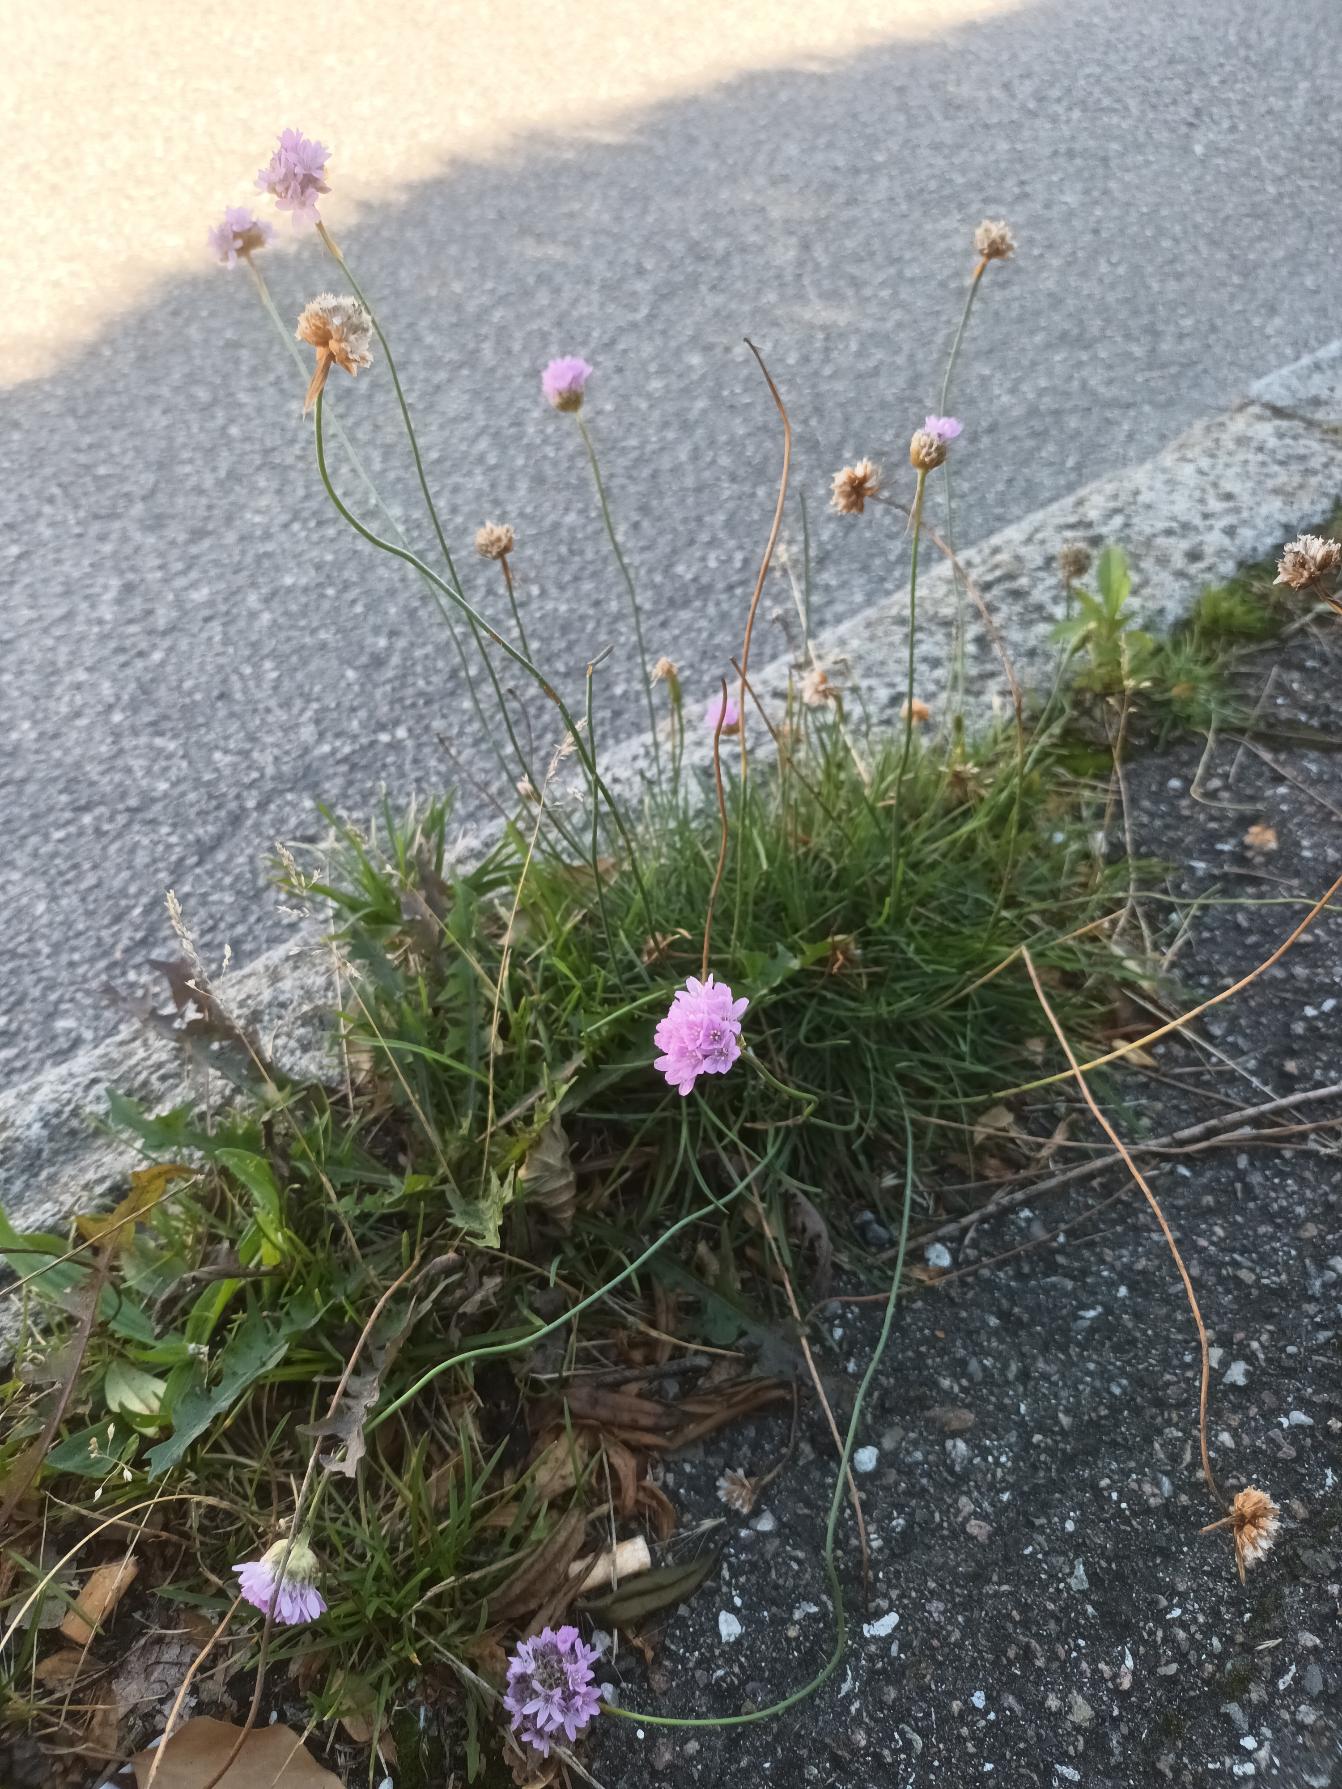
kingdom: Plantae
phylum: Tracheophyta
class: Magnoliopsida
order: Caryophyllales
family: Plumbaginaceae
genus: Armeria
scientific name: Armeria maritima
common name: Engelskgræs
